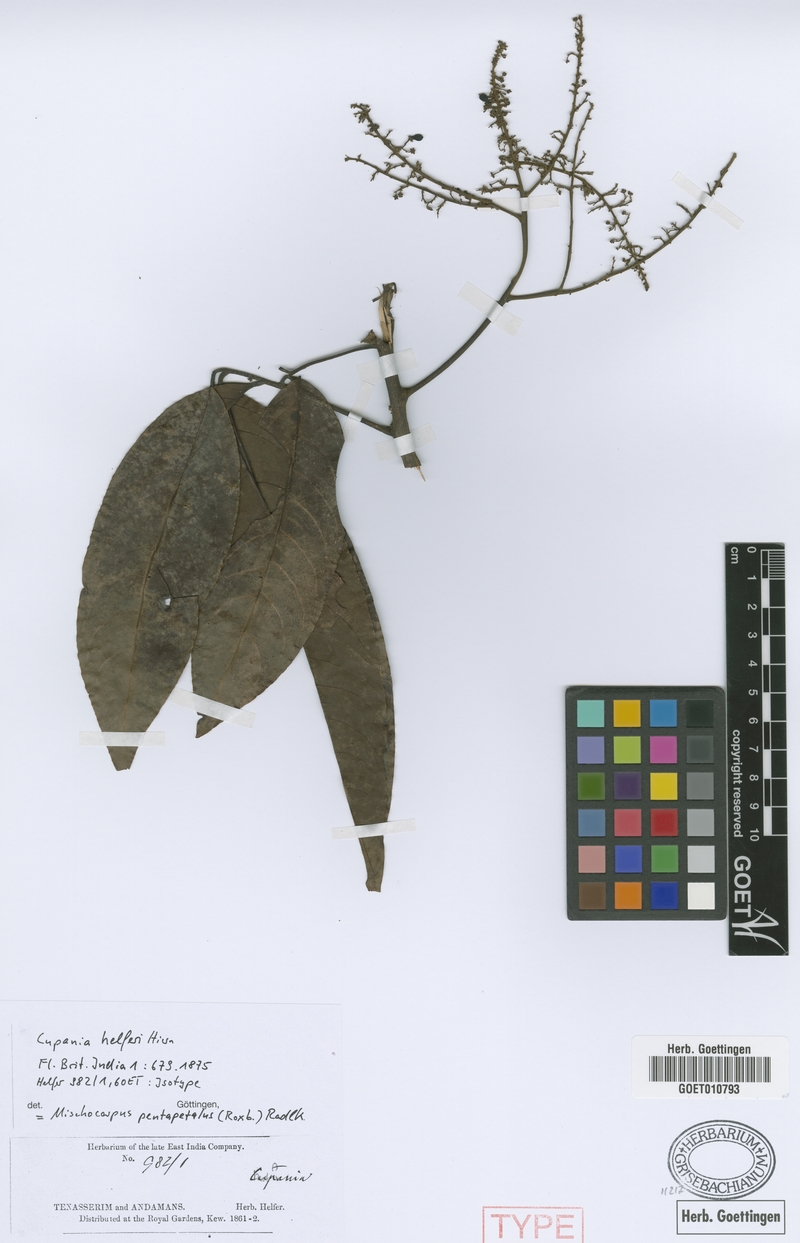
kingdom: Plantae
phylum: Tracheophyta
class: Magnoliopsida
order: Sapindales
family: Sapindaceae
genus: Mischocarpus
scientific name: Mischocarpus pentapetalus
